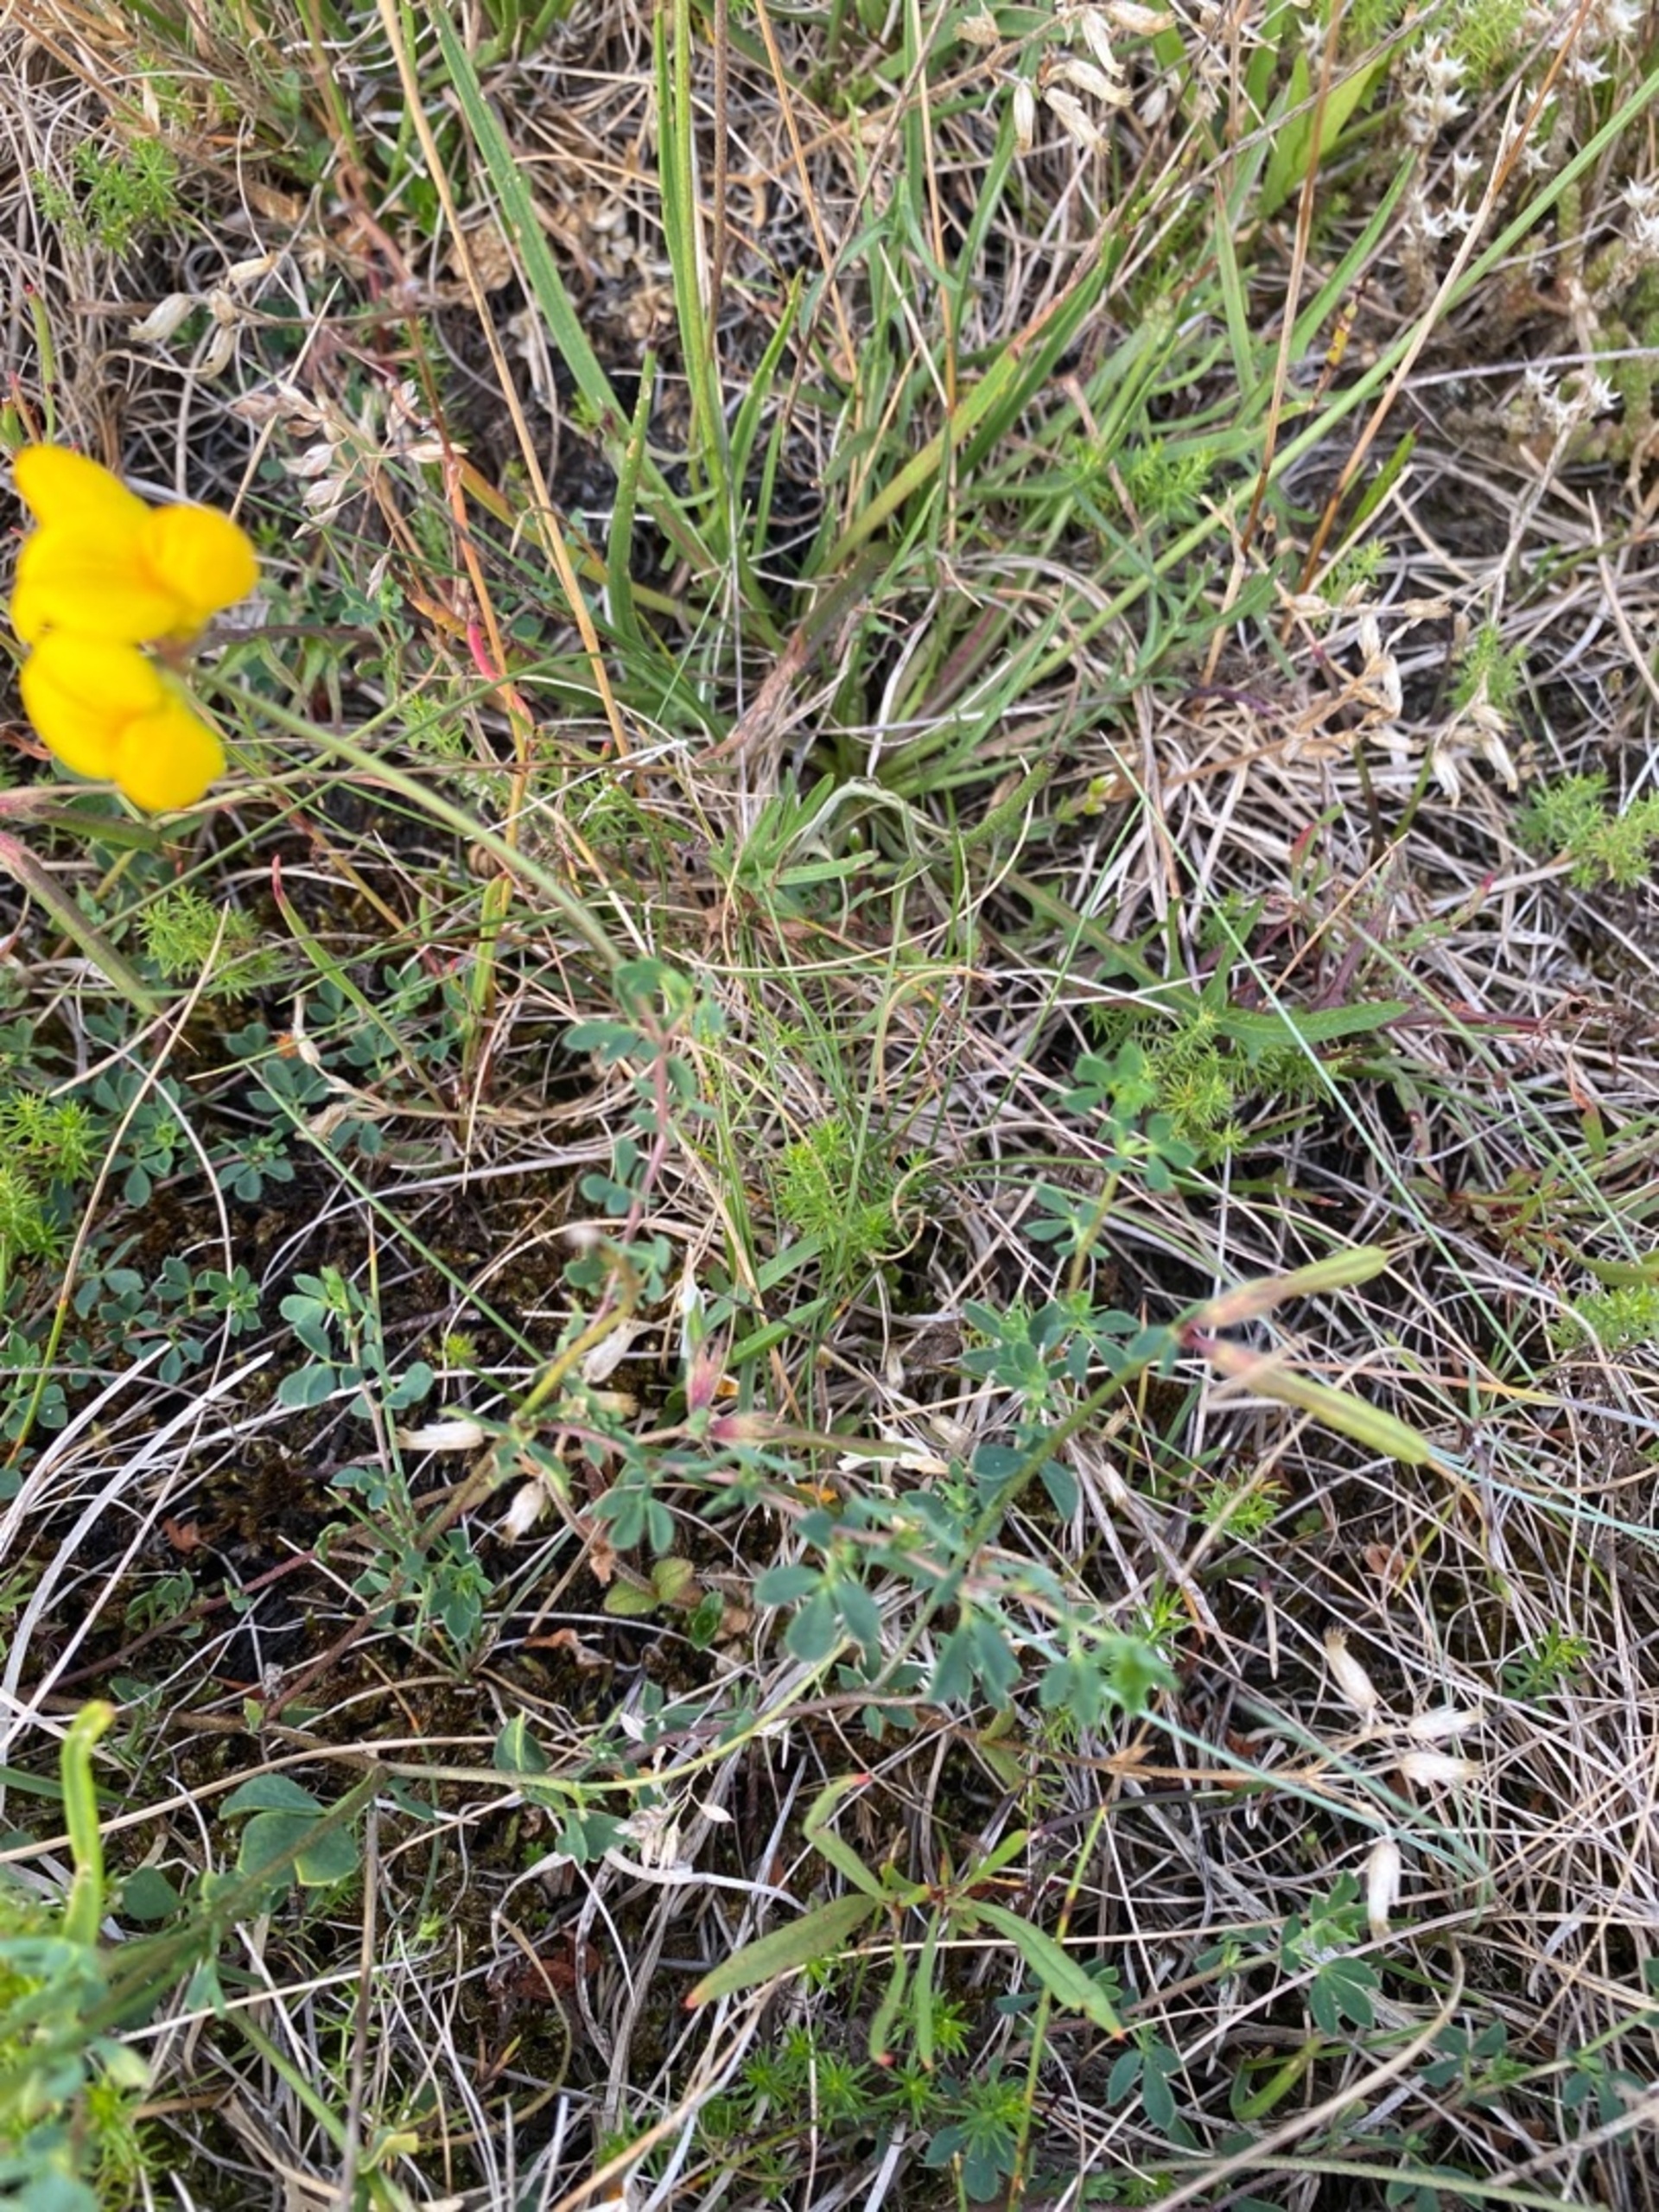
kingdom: Plantae
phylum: Tracheophyta
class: Magnoliopsida
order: Fabales
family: Fabaceae
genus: Lotus
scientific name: Lotus corniculatus
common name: Almindelig kællingetand
